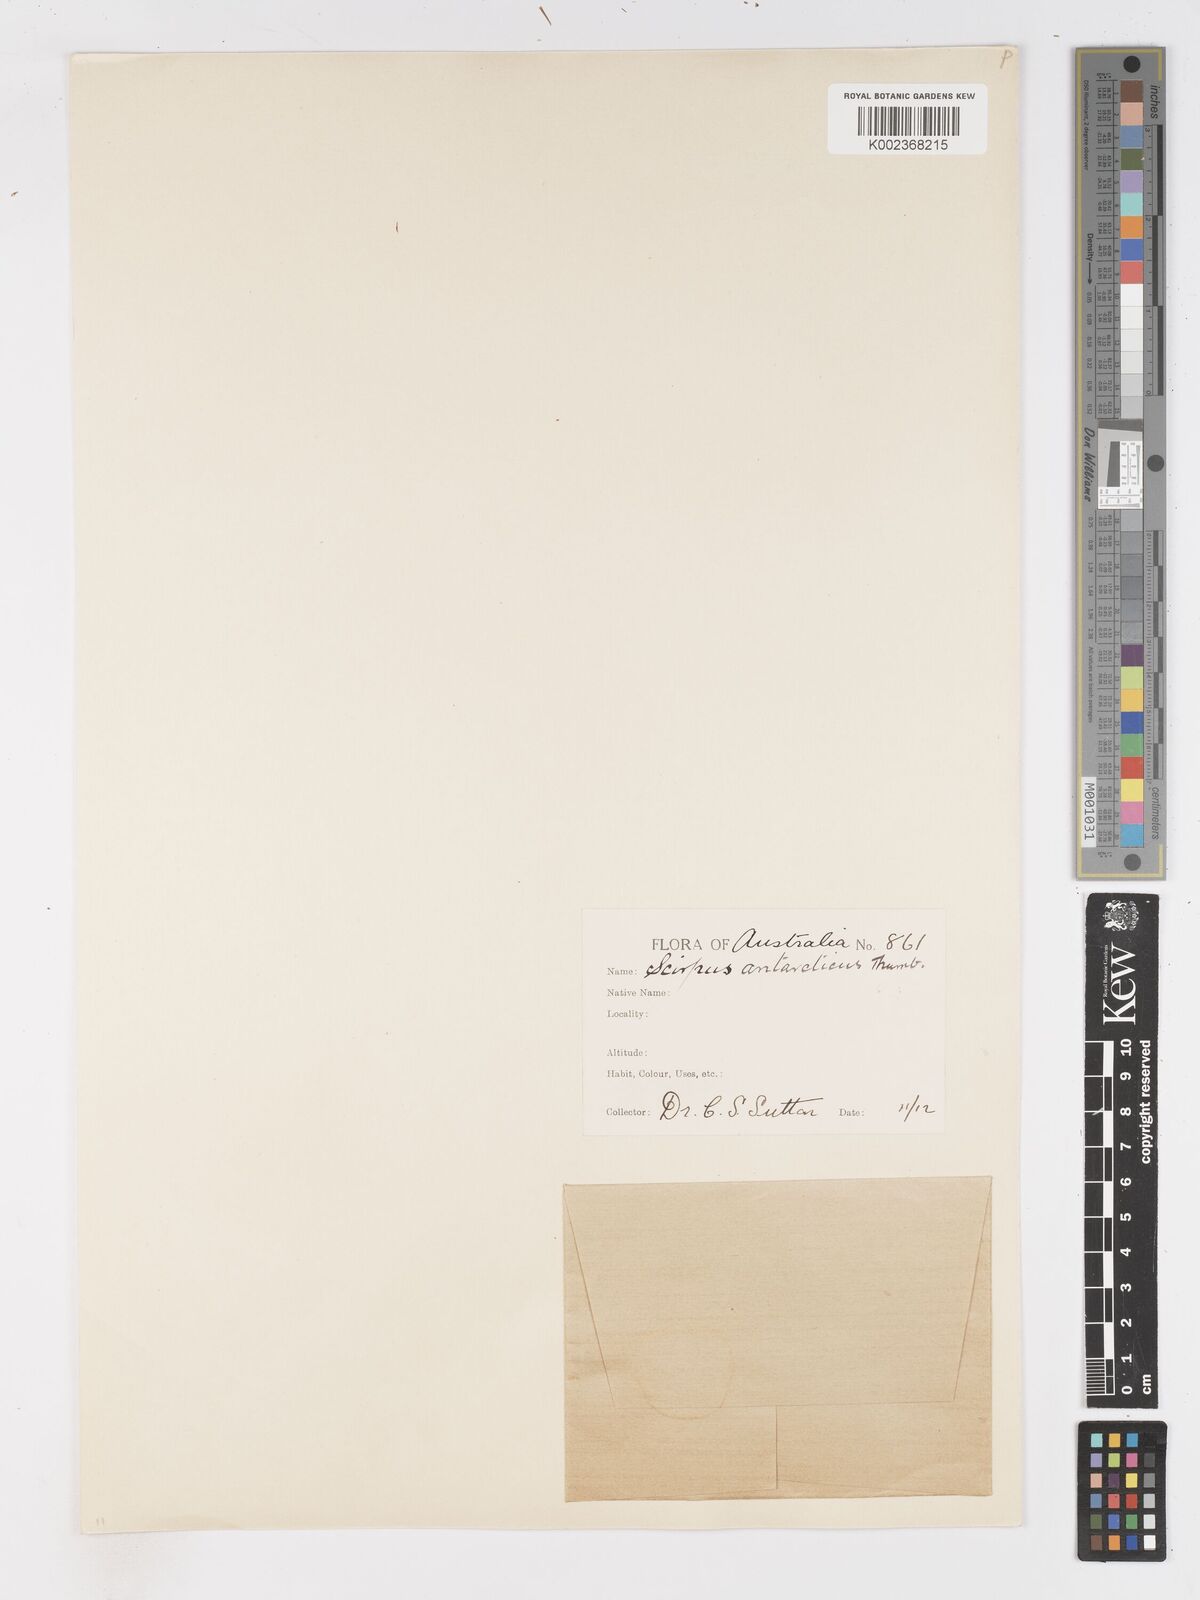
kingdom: Plantae
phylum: Tracheophyta
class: Liliopsida
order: Poales
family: Cyperaceae
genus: Isolepis
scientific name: Isolepis marginata
